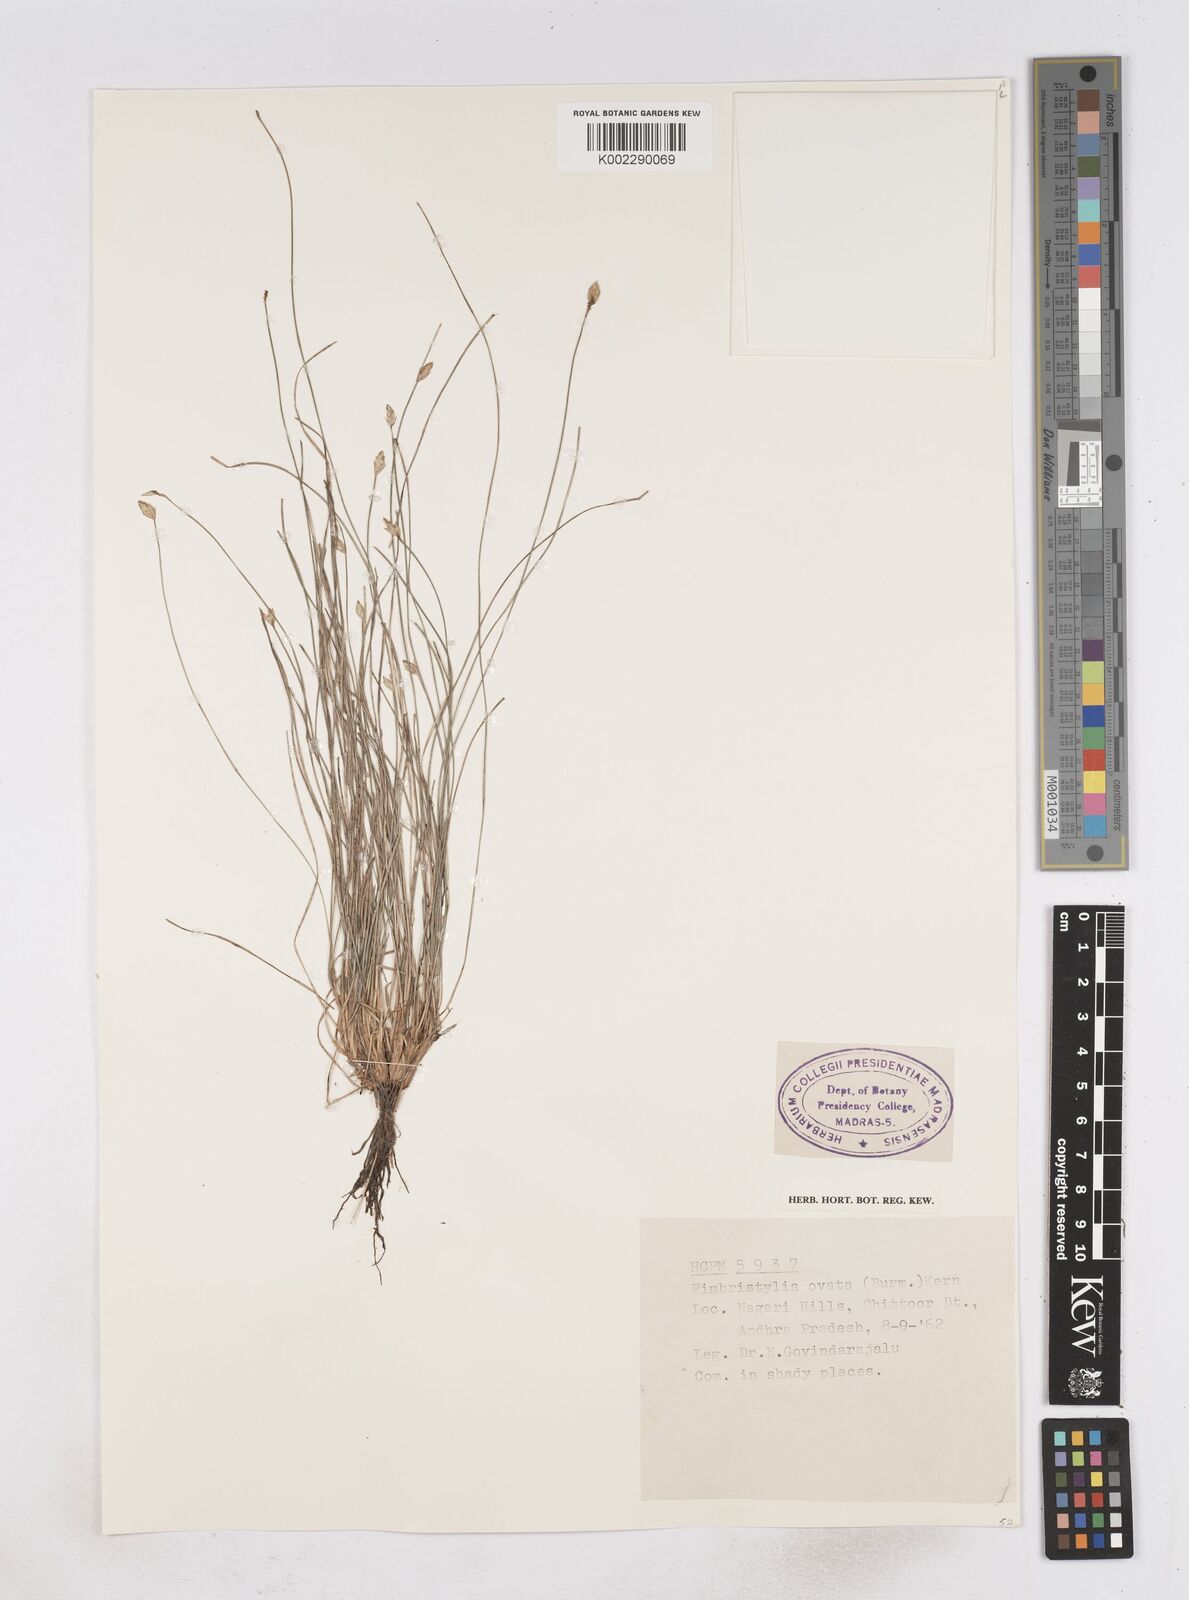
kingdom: Plantae
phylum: Tracheophyta
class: Liliopsida
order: Poales
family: Cyperaceae
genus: Abildgaardia
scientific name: Abildgaardia ovata
